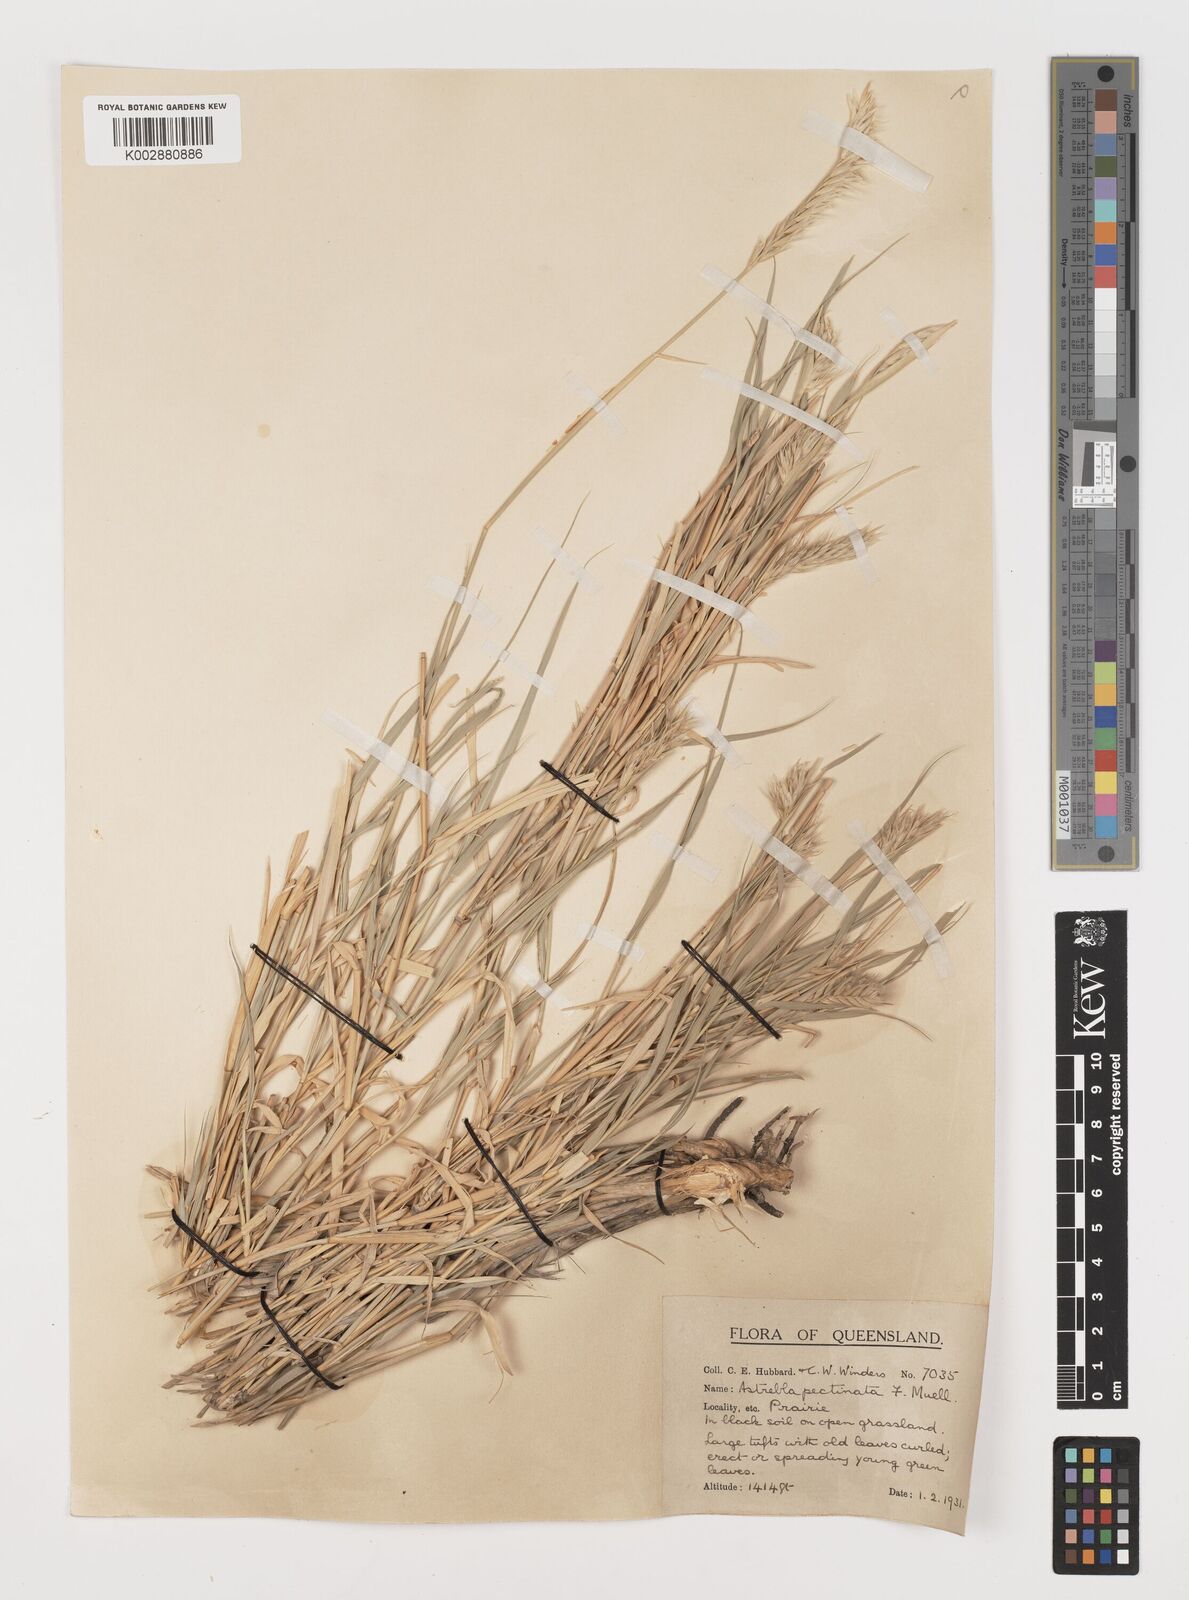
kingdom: Plantae
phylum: Tracheophyta
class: Liliopsida
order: Poales
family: Poaceae
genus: Astrebla
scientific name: Astrebla pectinata
